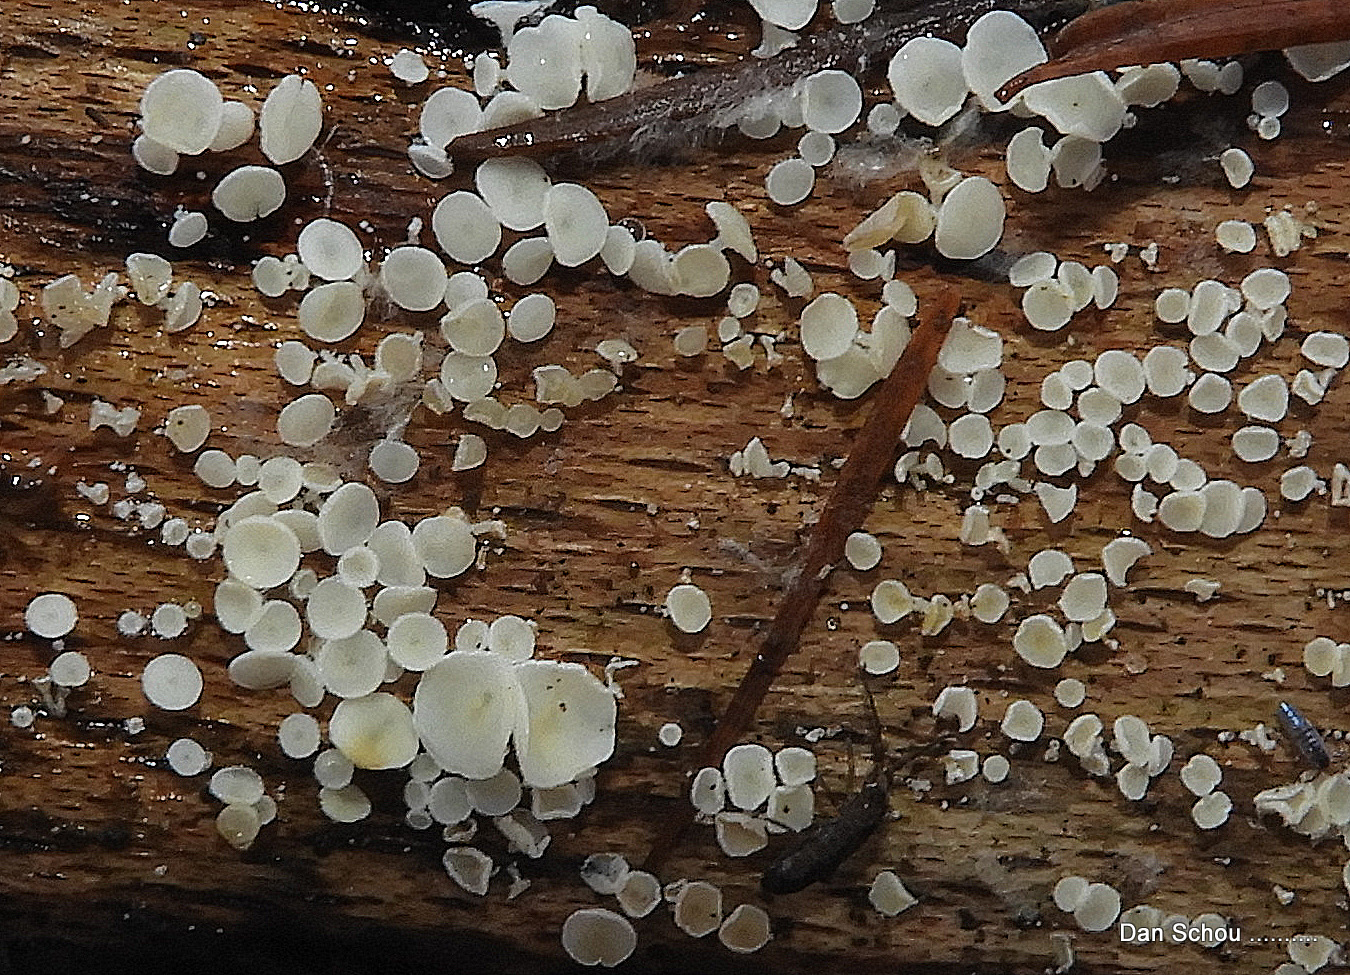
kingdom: Fungi
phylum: Ascomycota
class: Leotiomycetes
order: Helotiales
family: Lachnaceae
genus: Lachnum
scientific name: Lachnum
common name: frynseskive
